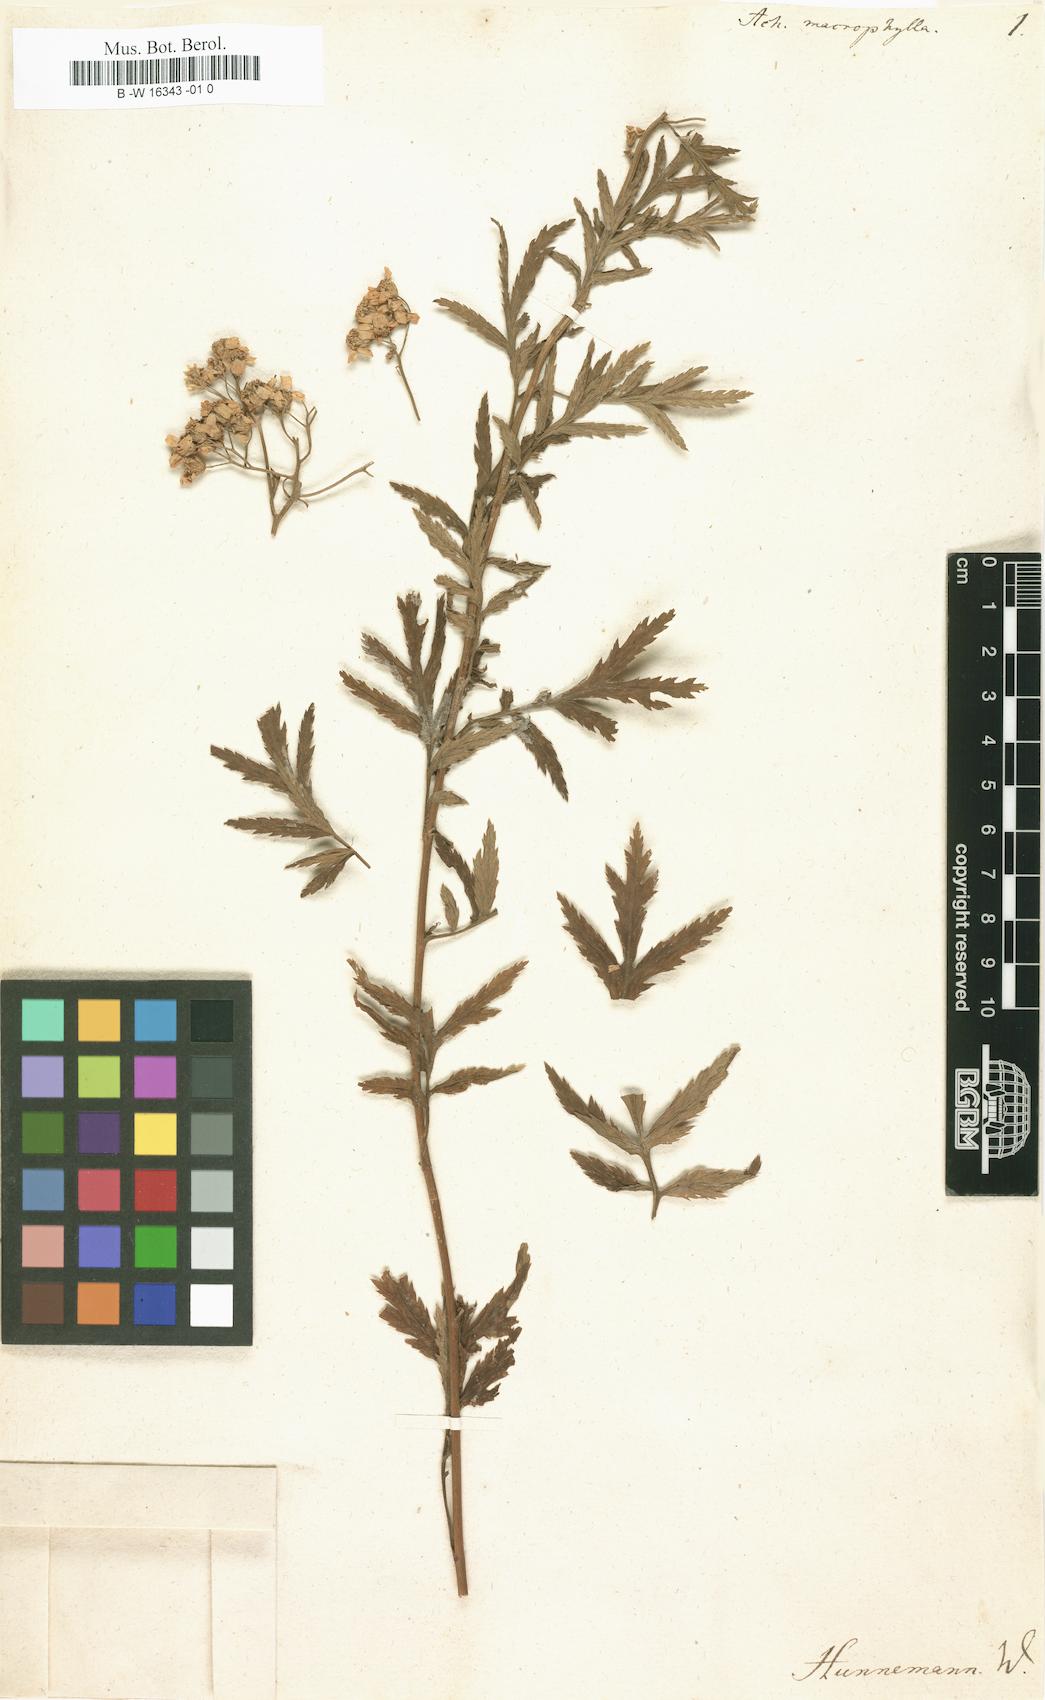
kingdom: Plantae
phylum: Tracheophyta
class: Magnoliopsida
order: Asterales
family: Asteraceae
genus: Achillea
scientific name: Achillea macrophylla
